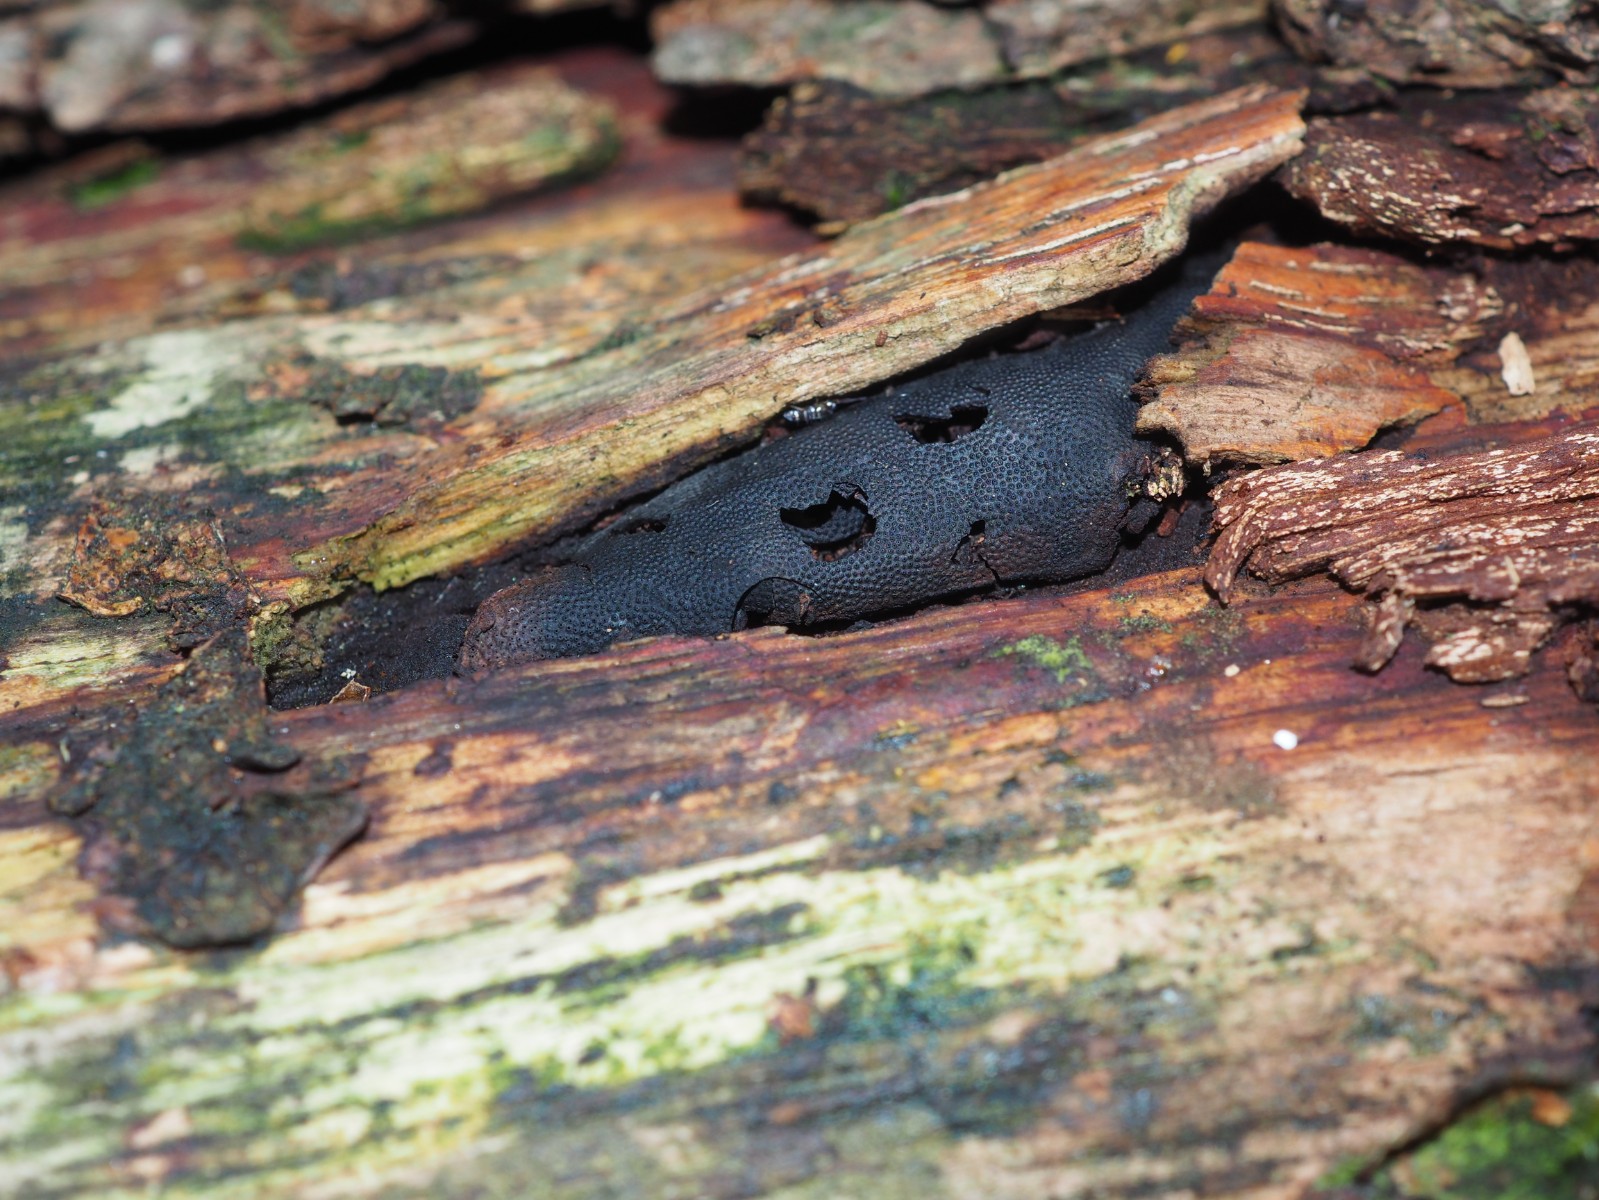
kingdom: Fungi
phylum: Ascomycota
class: Sordariomycetes
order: Boliniales
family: Boliniaceae
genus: Camarops
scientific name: Camarops polysperma
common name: elle-kulsnegl
